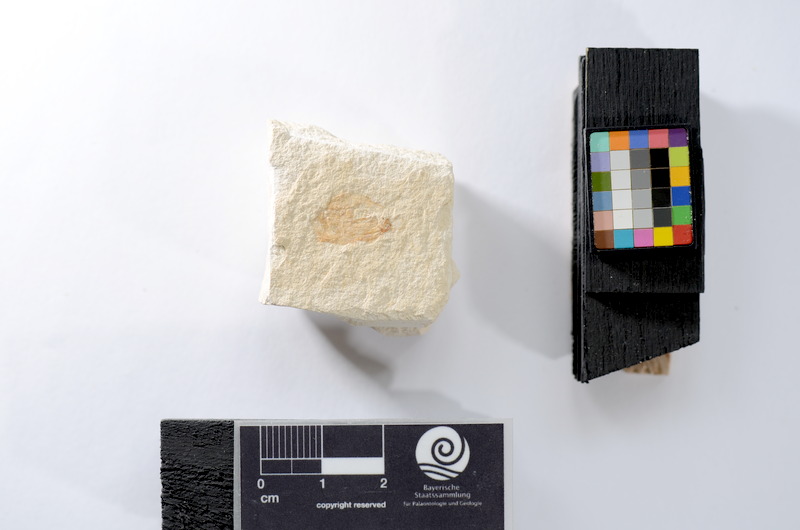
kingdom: Animalia
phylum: Chordata
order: Salmoniformes
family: Orthogonikleithridae
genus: Leptolepides
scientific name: Leptolepides
